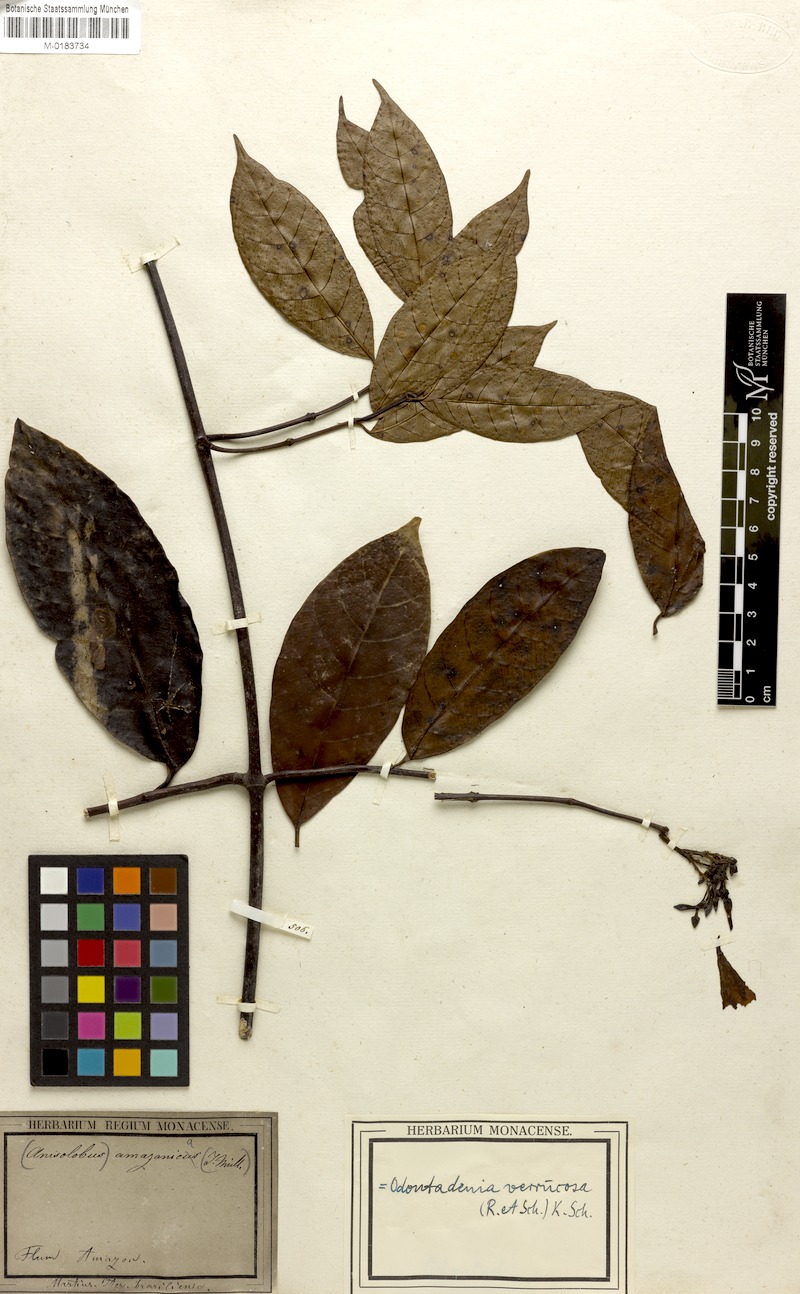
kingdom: Plantae
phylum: Tracheophyta
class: Magnoliopsida
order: Gentianales
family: Apocynaceae
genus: Odontadenia
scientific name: Odontadenia verrucosa
